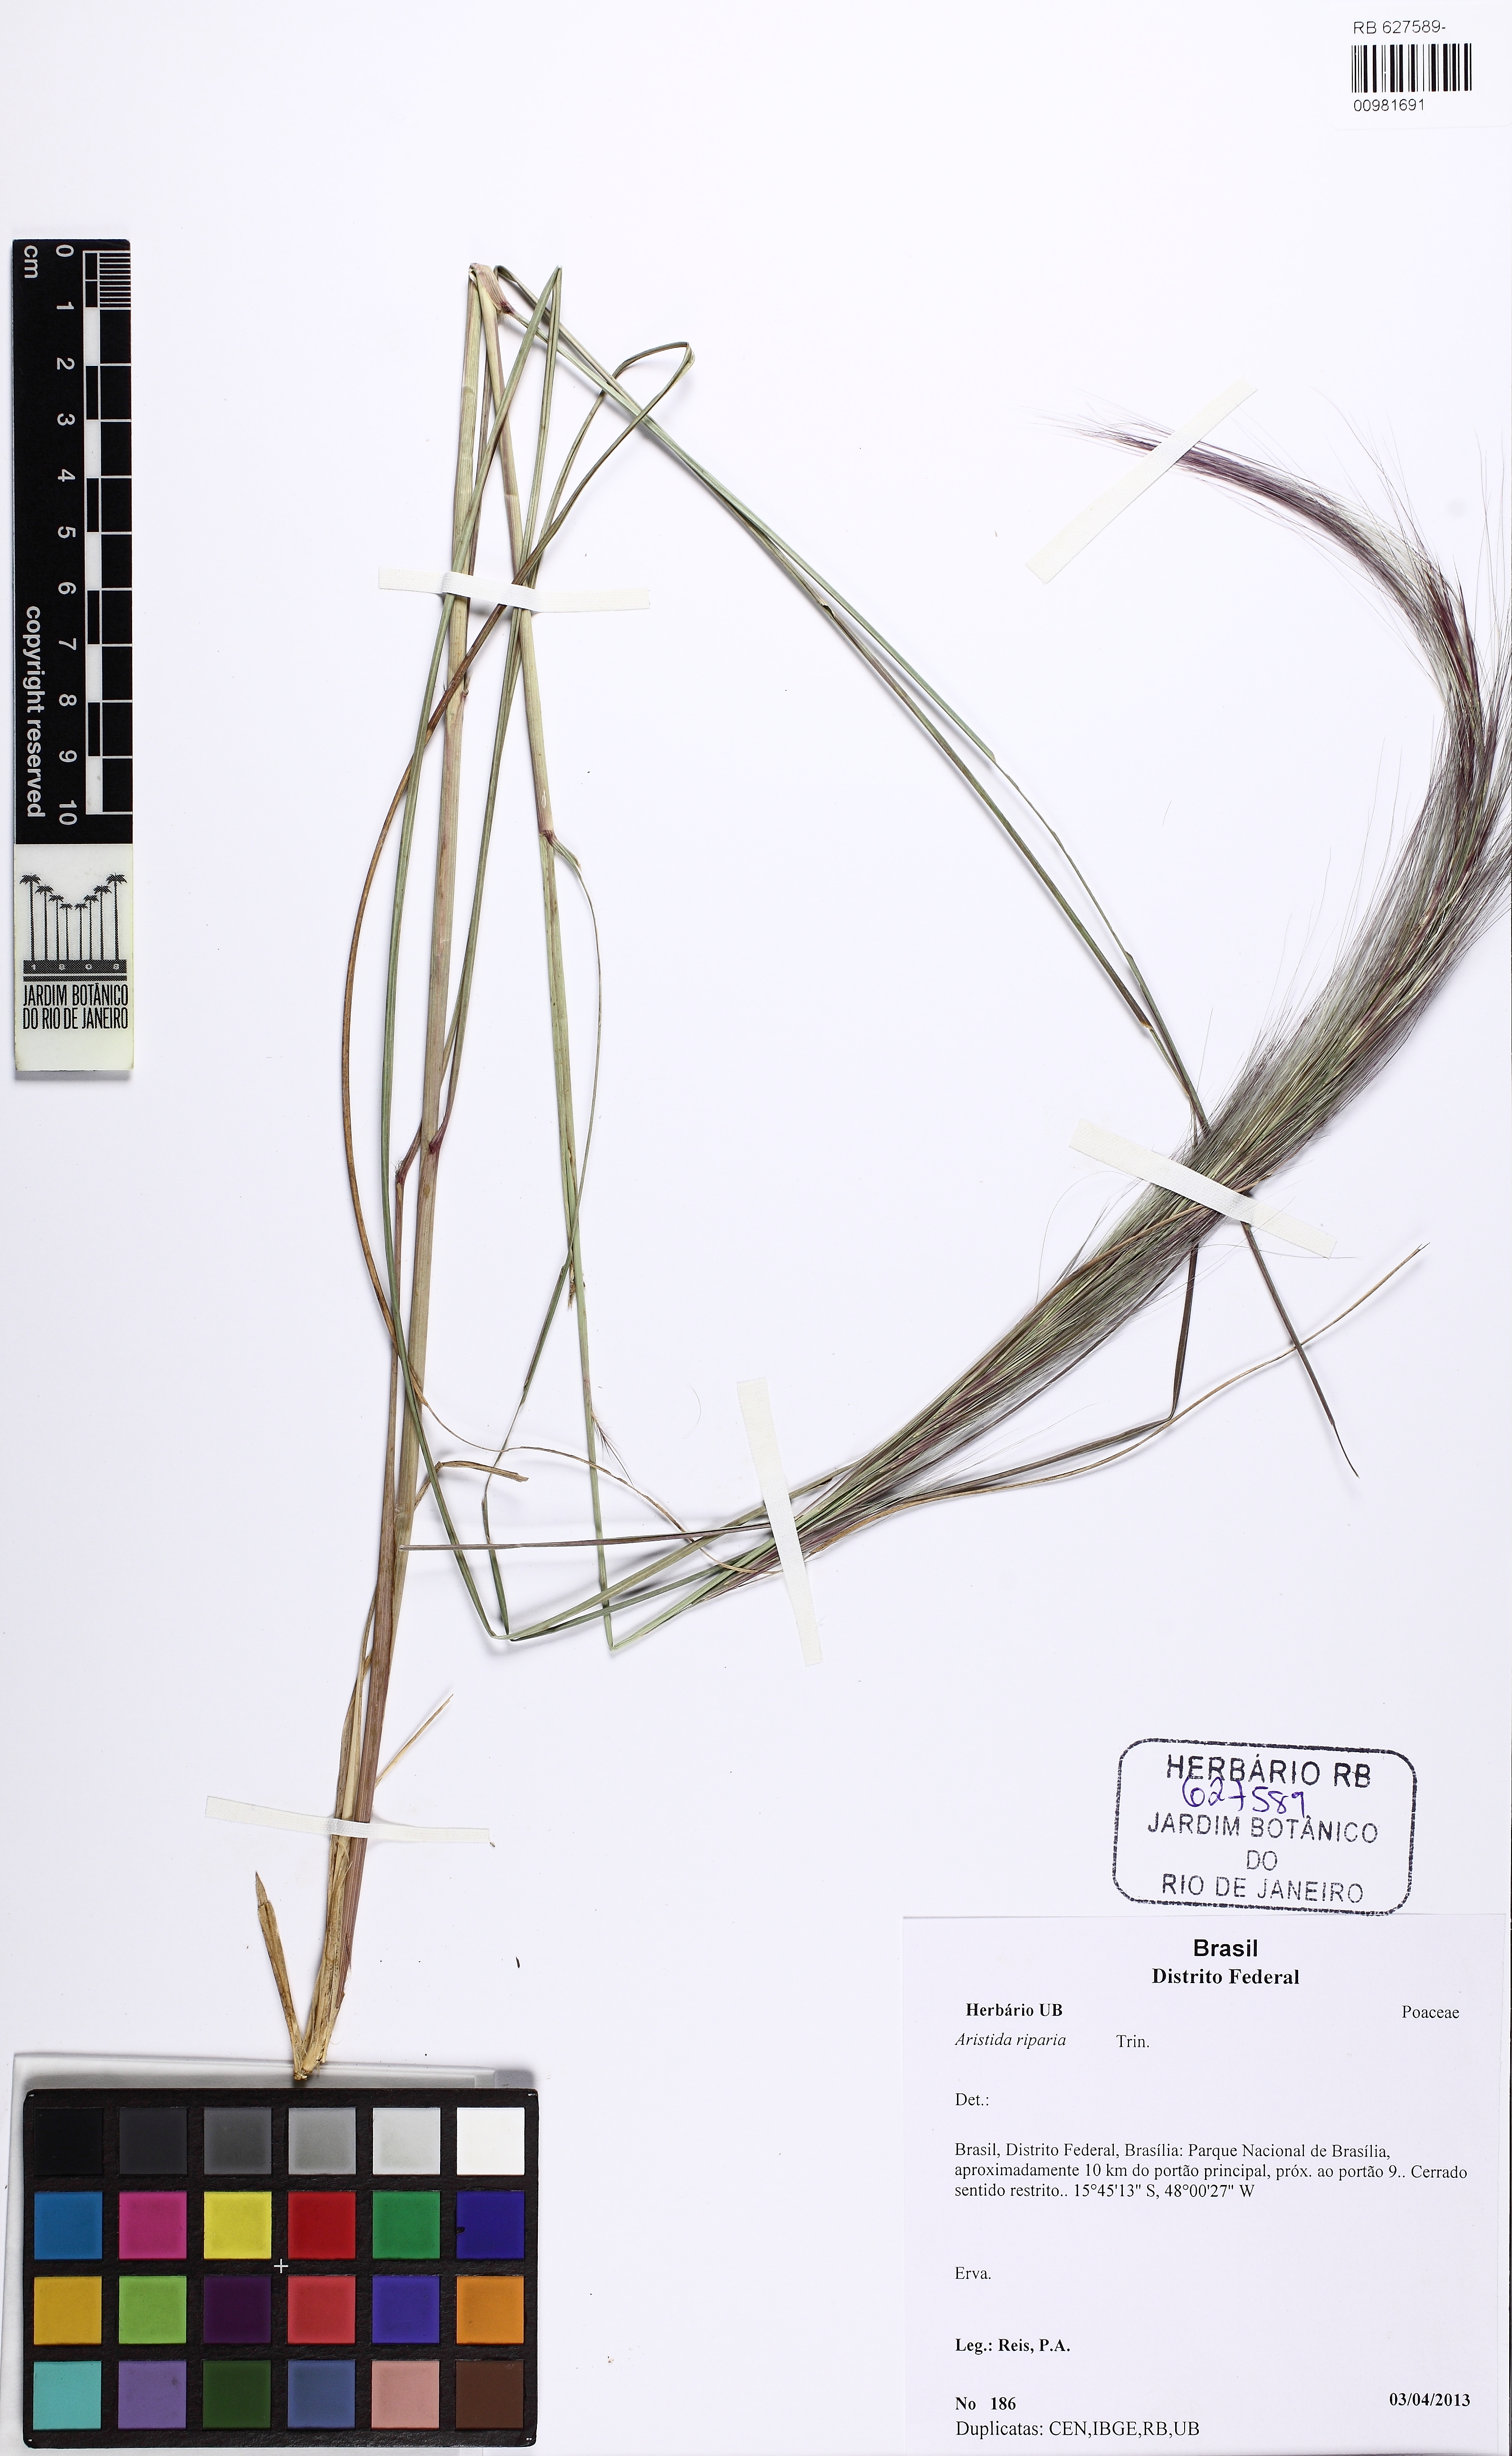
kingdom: Plantae
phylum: Tracheophyta
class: Liliopsida
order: Poales
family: Poaceae
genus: Aristida
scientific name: Aristida riparia
